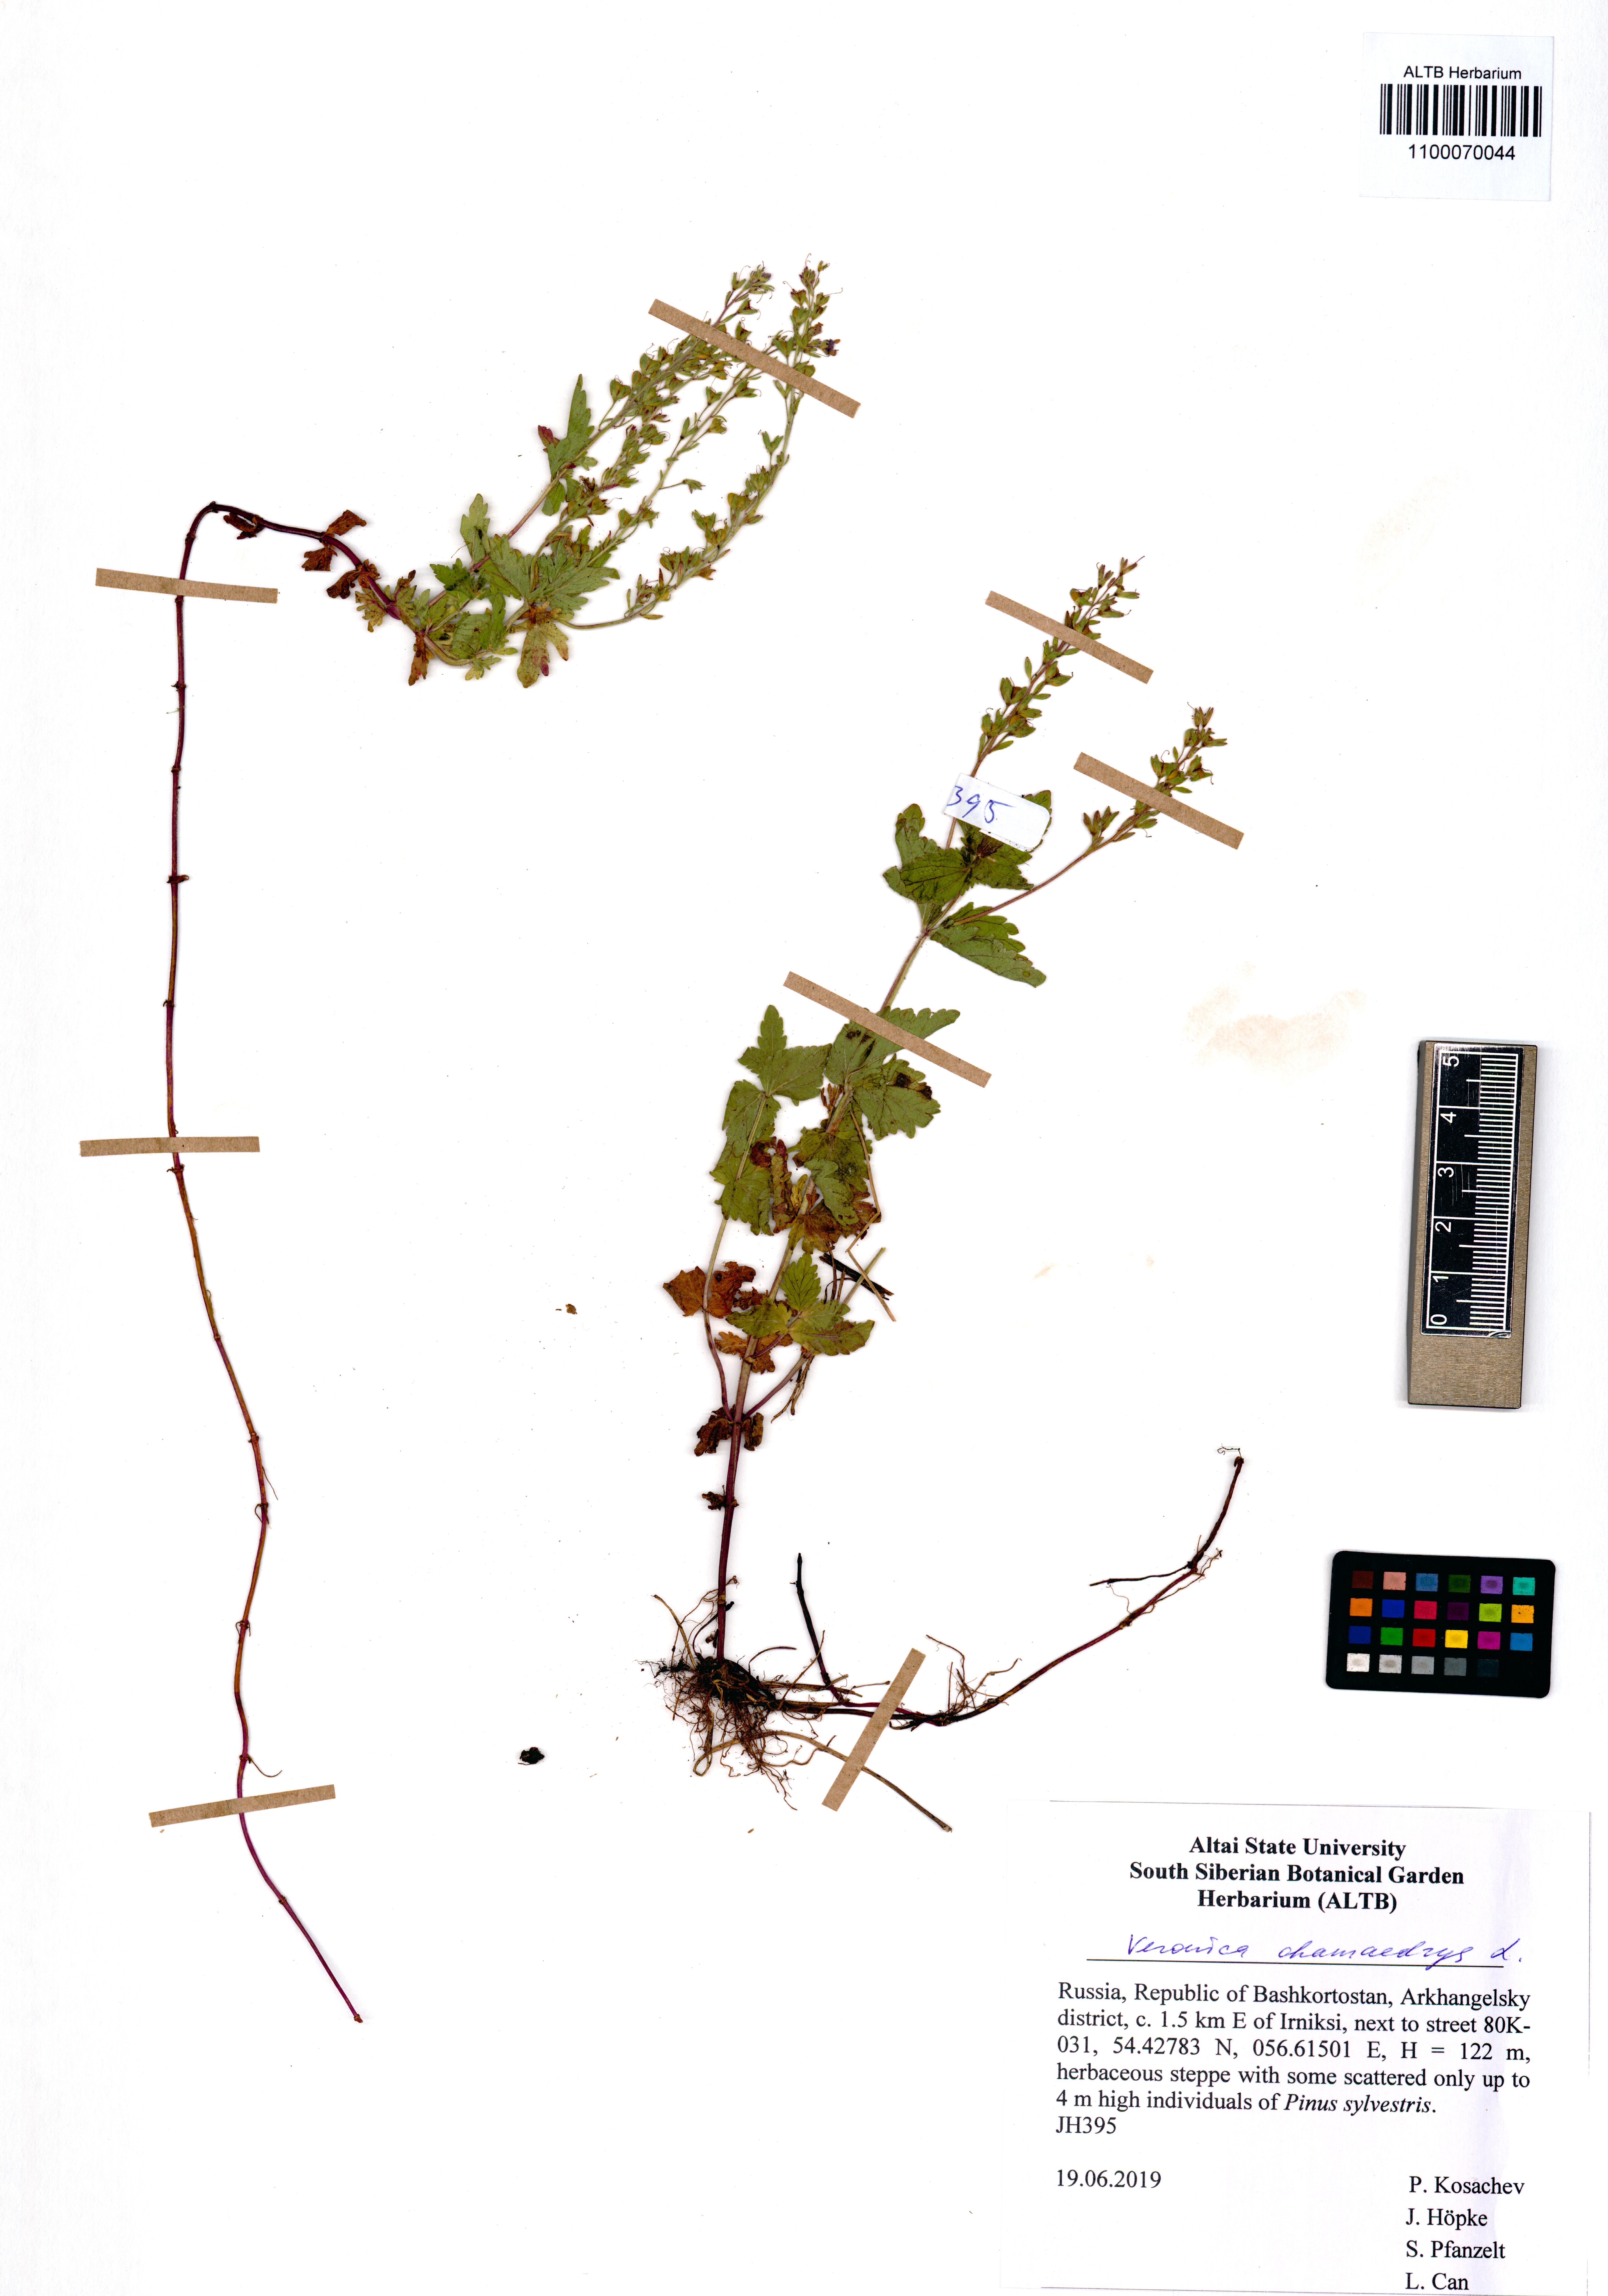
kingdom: Plantae
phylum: Tracheophyta
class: Magnoliopsida
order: Lamiales
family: Plantaginaceae
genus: Veronica
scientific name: Veronica chamaedrys
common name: Germander speedwell
